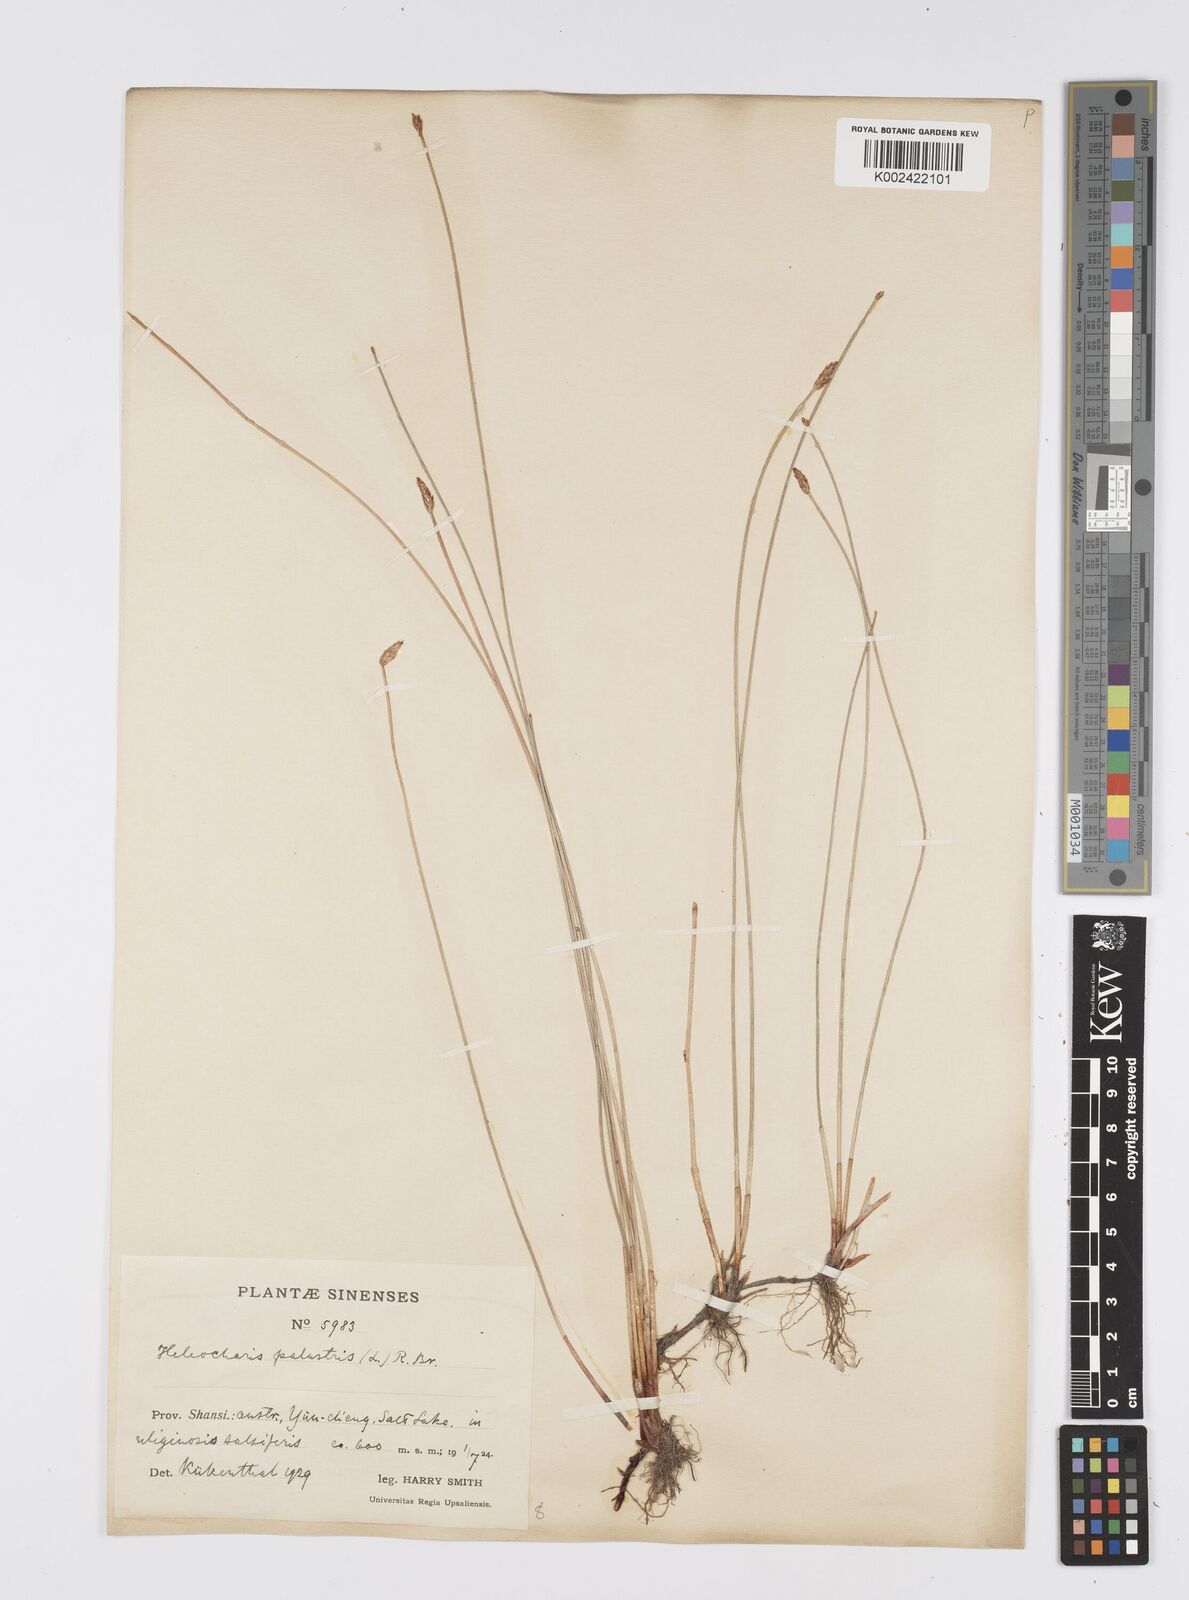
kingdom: Plantae
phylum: Tracheophyta
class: Liliopsida
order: Poales
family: Cyperaceae
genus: Eleocharis
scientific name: Eleocharis palustris
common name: Common spike-rush
